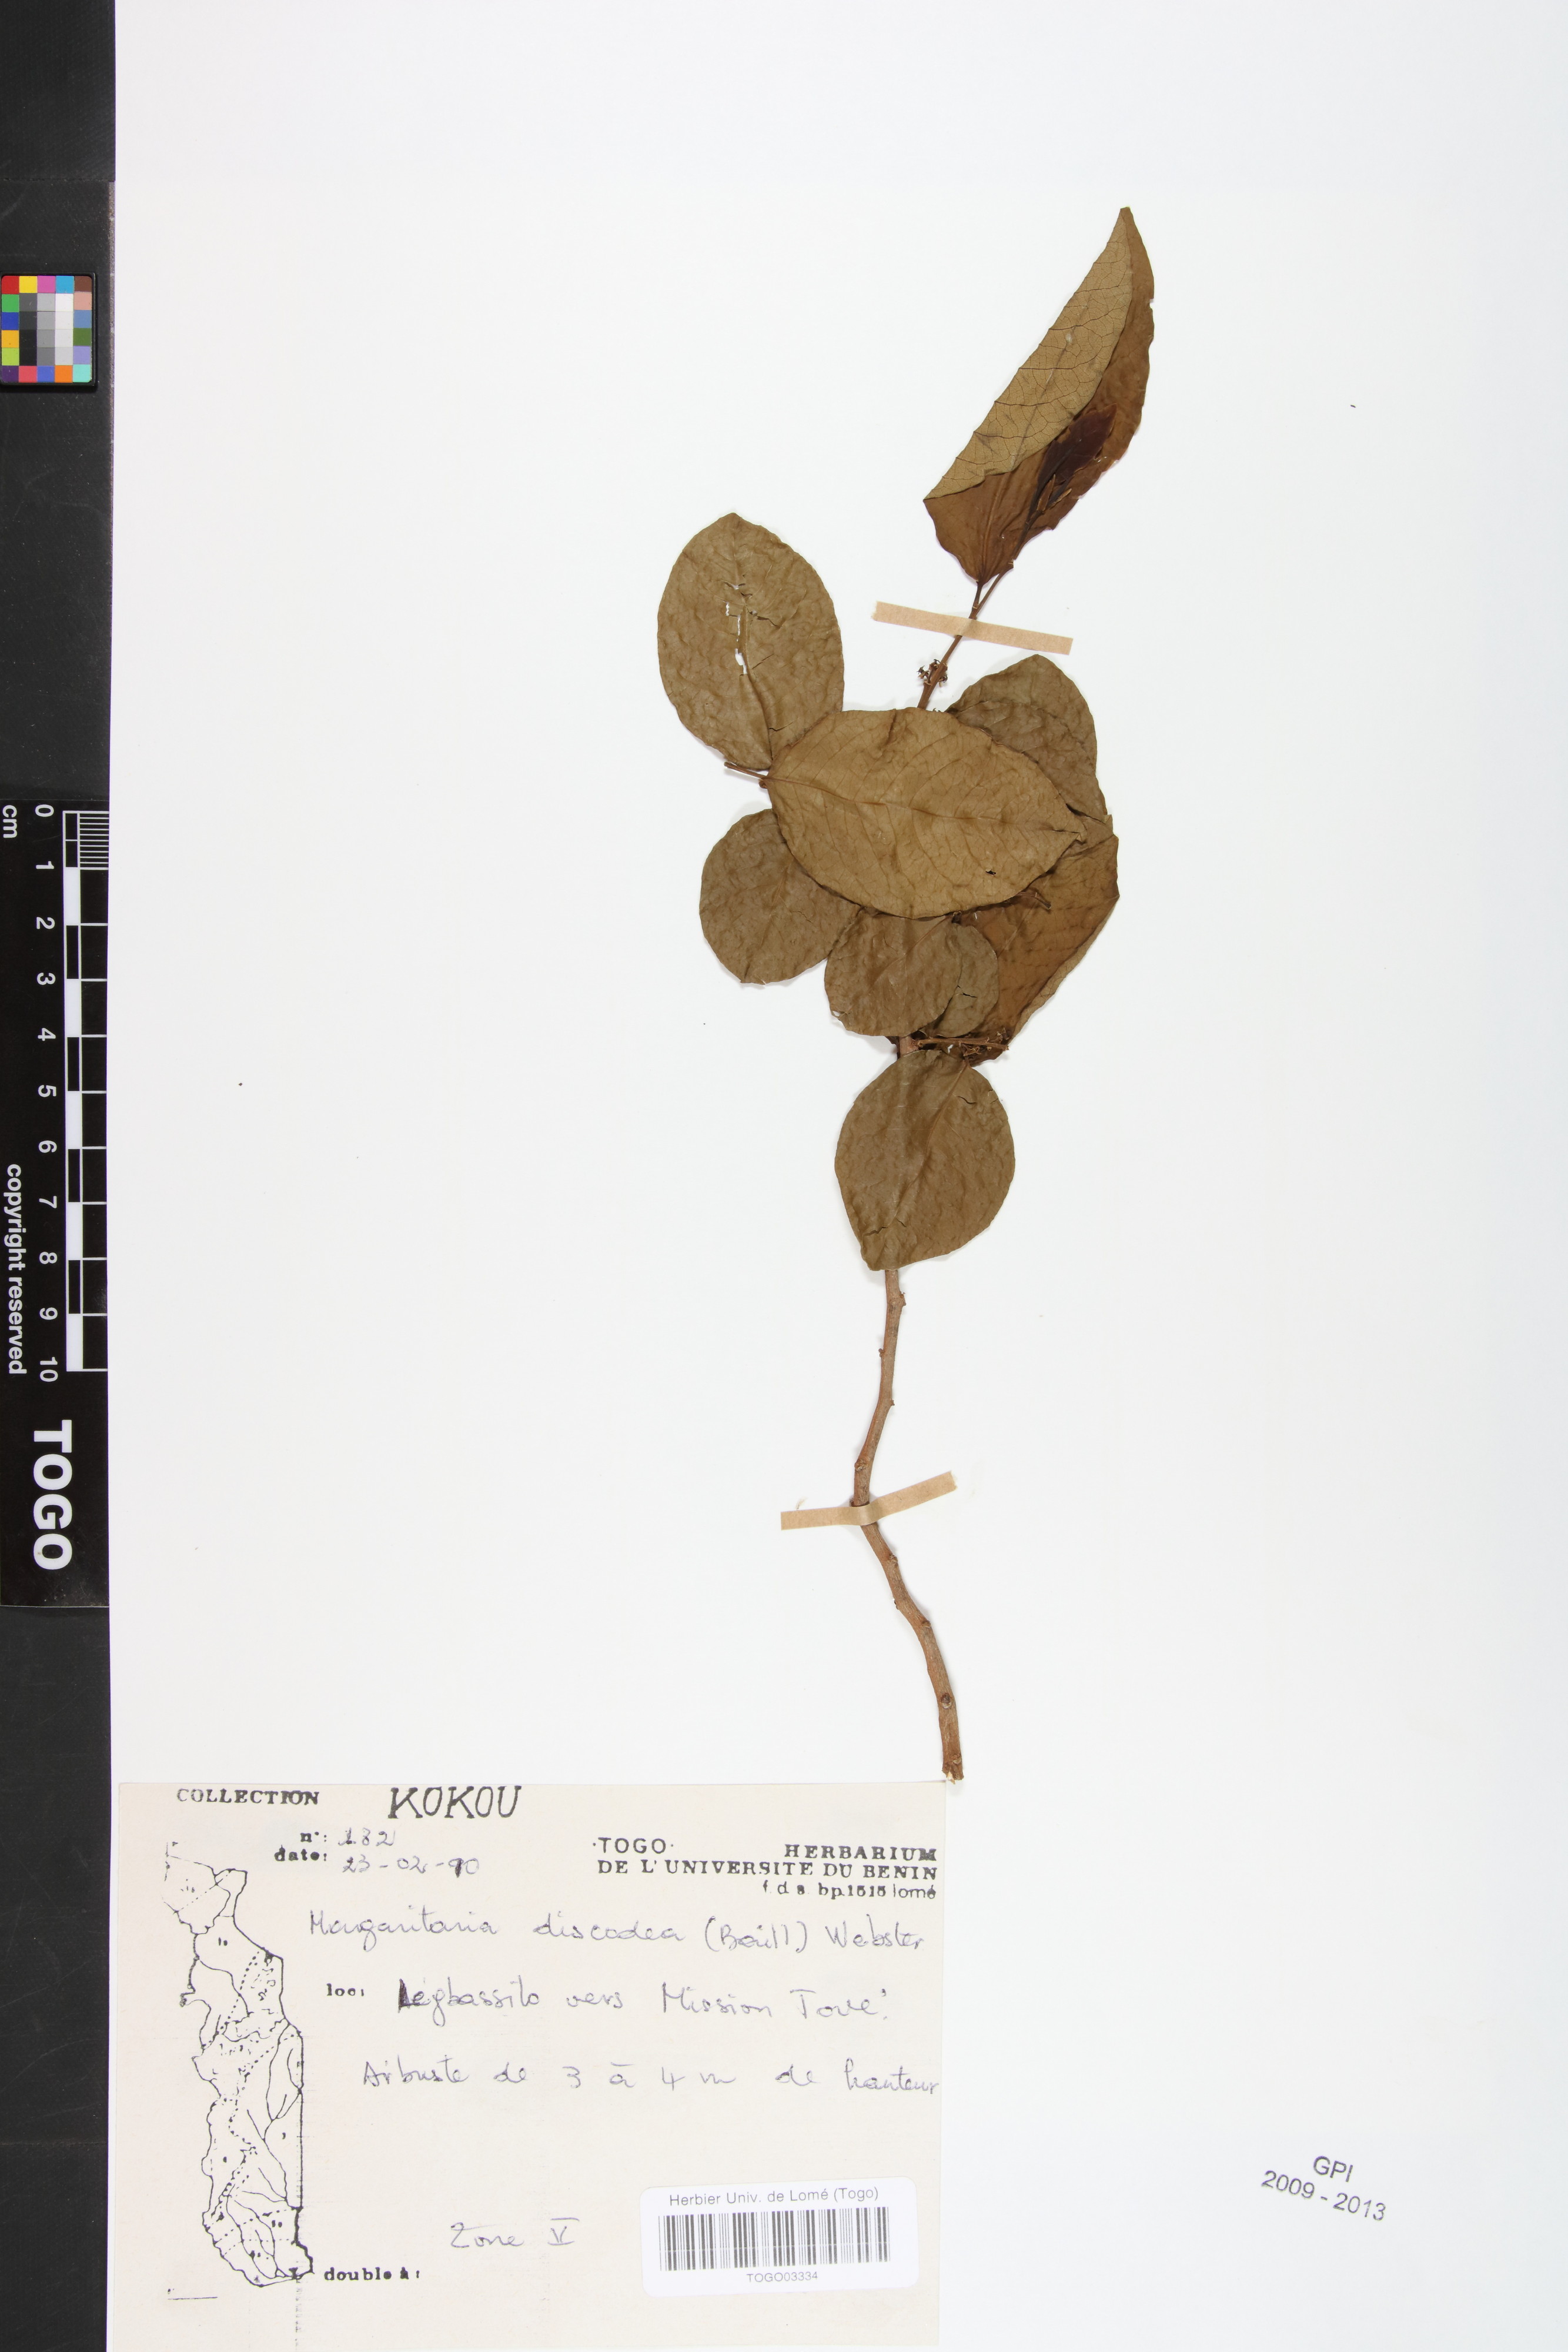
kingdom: Plantae
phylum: Tracheophyta
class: Magnoliopsida
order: Malpighiales
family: Phyllanthaceae
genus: Margaritaria
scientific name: Margaritaria discoidea
